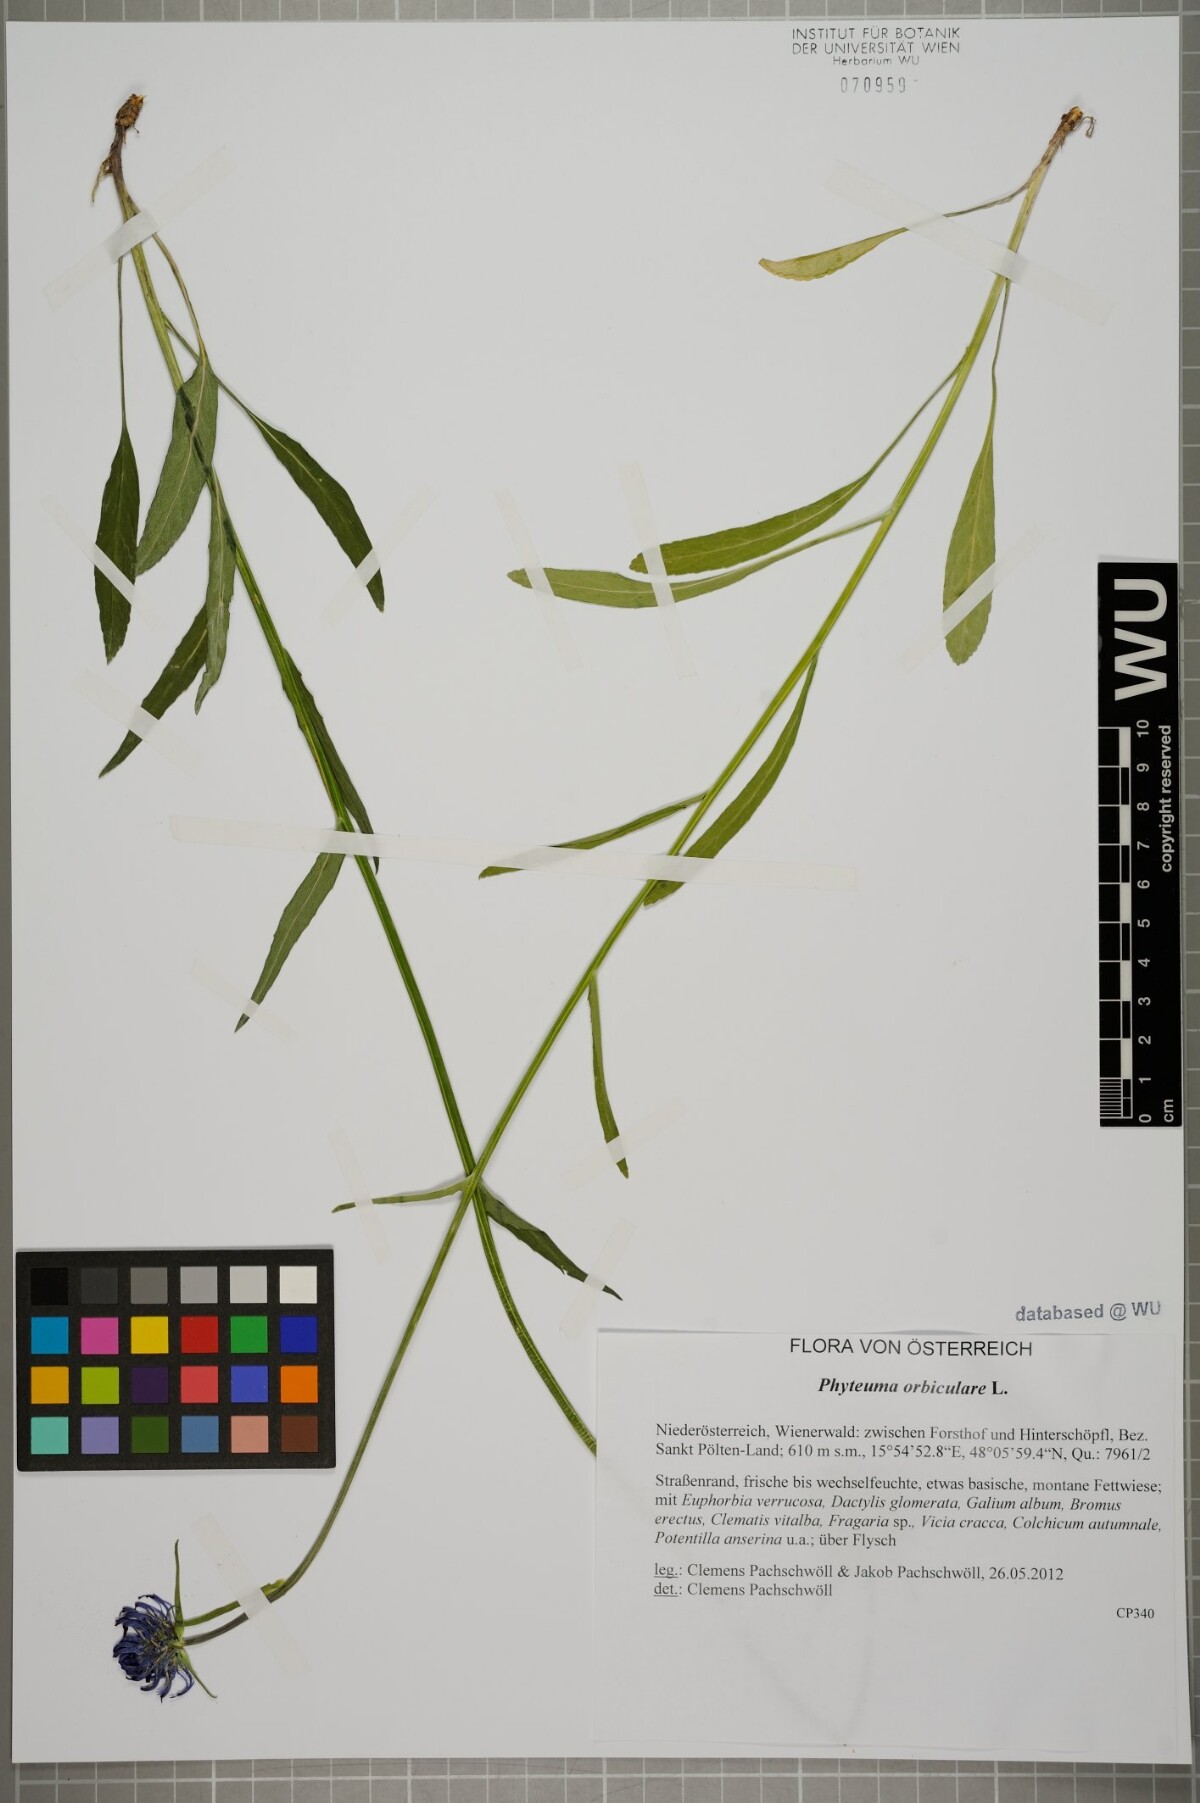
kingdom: Plantae
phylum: Tracheophyta
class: Magnoliopsida
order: Asterales
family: Campanulaceae
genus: Phyteuma
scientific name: Phyteuma orbiculare
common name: Round-headed rampion
